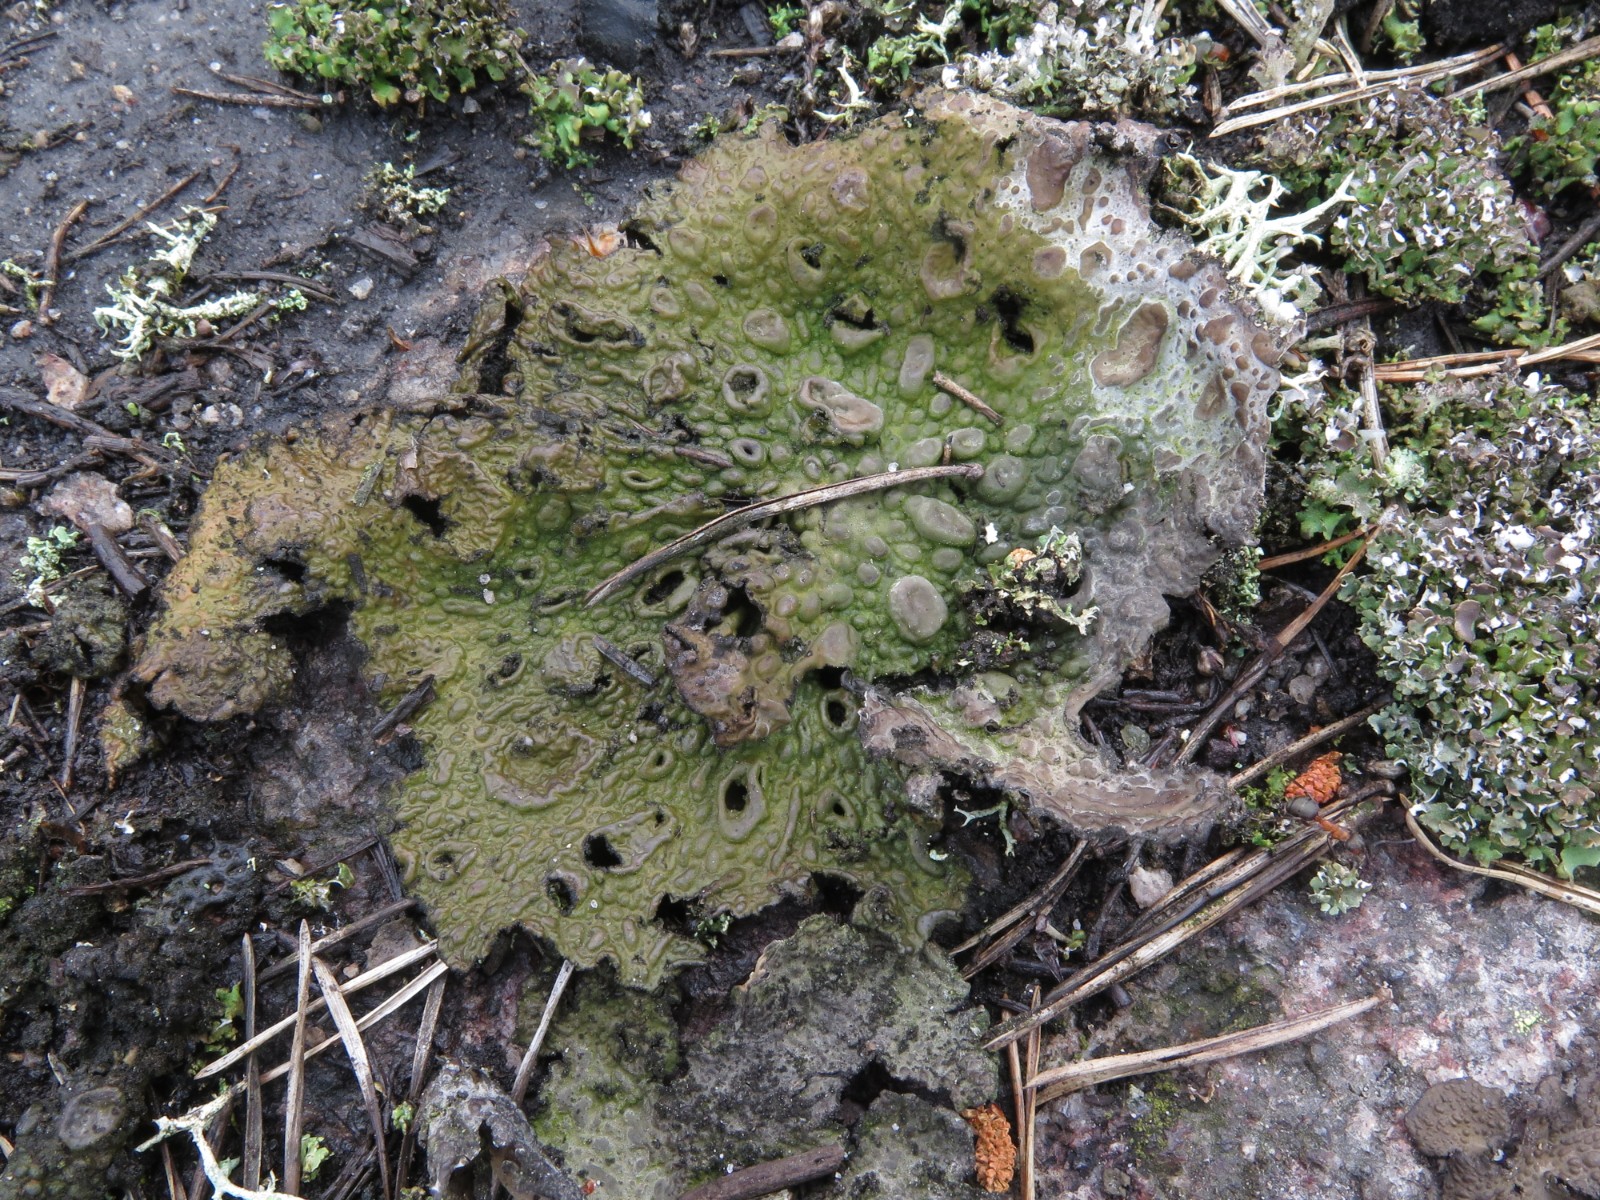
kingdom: Fungi
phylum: Ascomycota
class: Lecanoromycetes
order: Umbilicariales
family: Umbilicariaceae
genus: Lasallia
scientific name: Lasallia pustulata
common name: buklet navlelav
